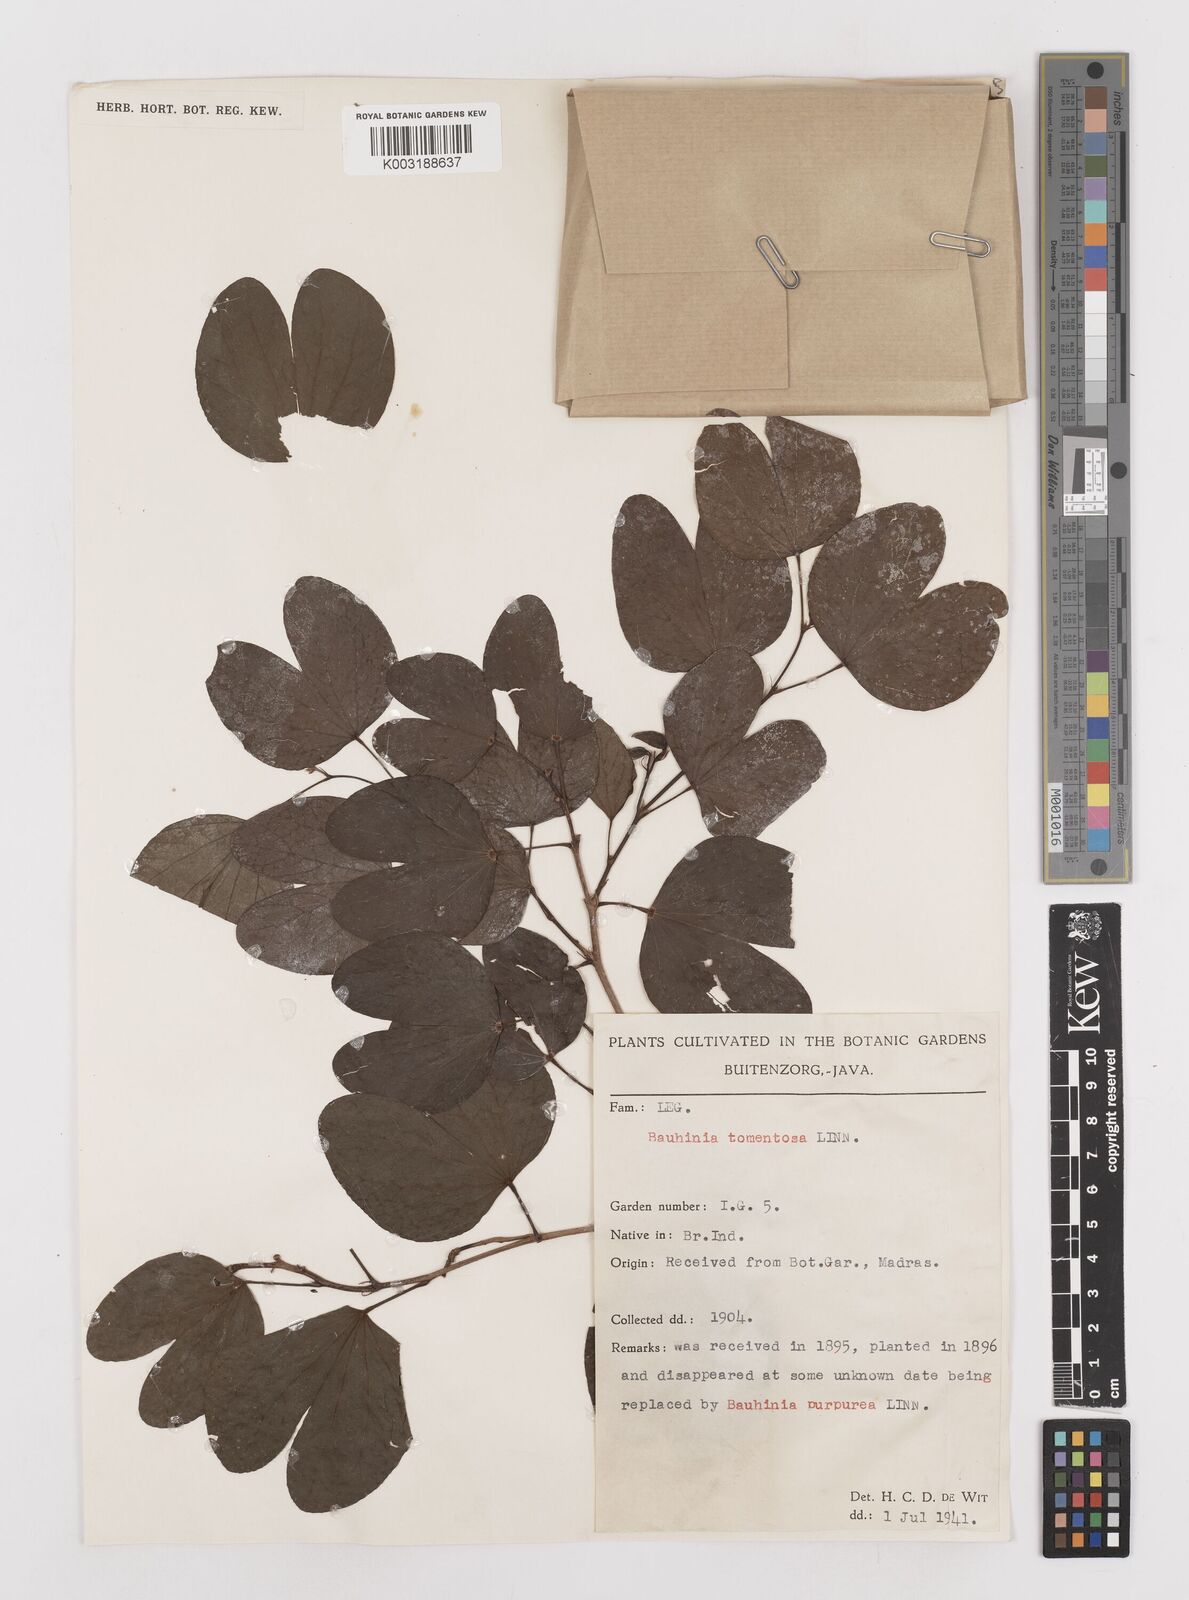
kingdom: Plantae
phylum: Tracheophyta
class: Magnoliopsida
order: Fabales
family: Fabaceae
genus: Bauhinia
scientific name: Bauhinia tomentosa
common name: Bell bauhinia
